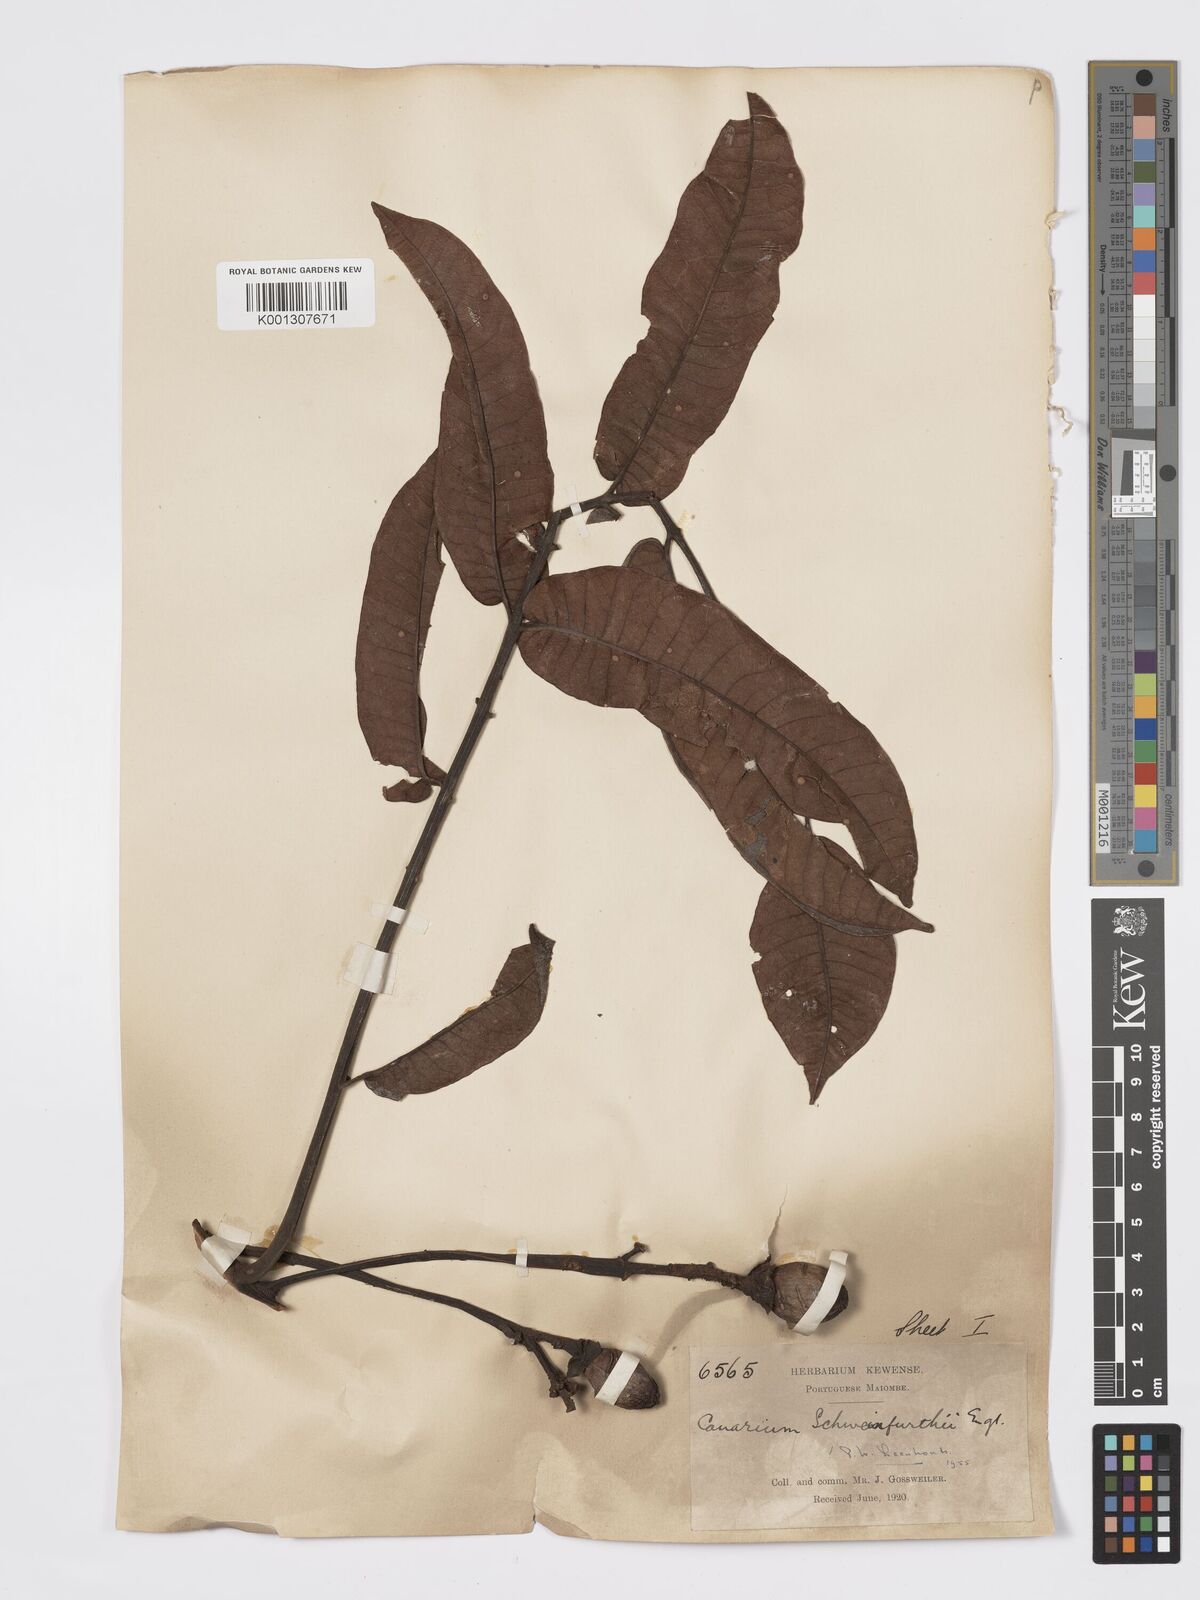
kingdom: Plantae
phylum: Tracheophyta
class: Magnoliopsida
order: Sapindales
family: Burseraceae
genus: Canarium
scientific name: Canarium schweinfurthii
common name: African elemi
